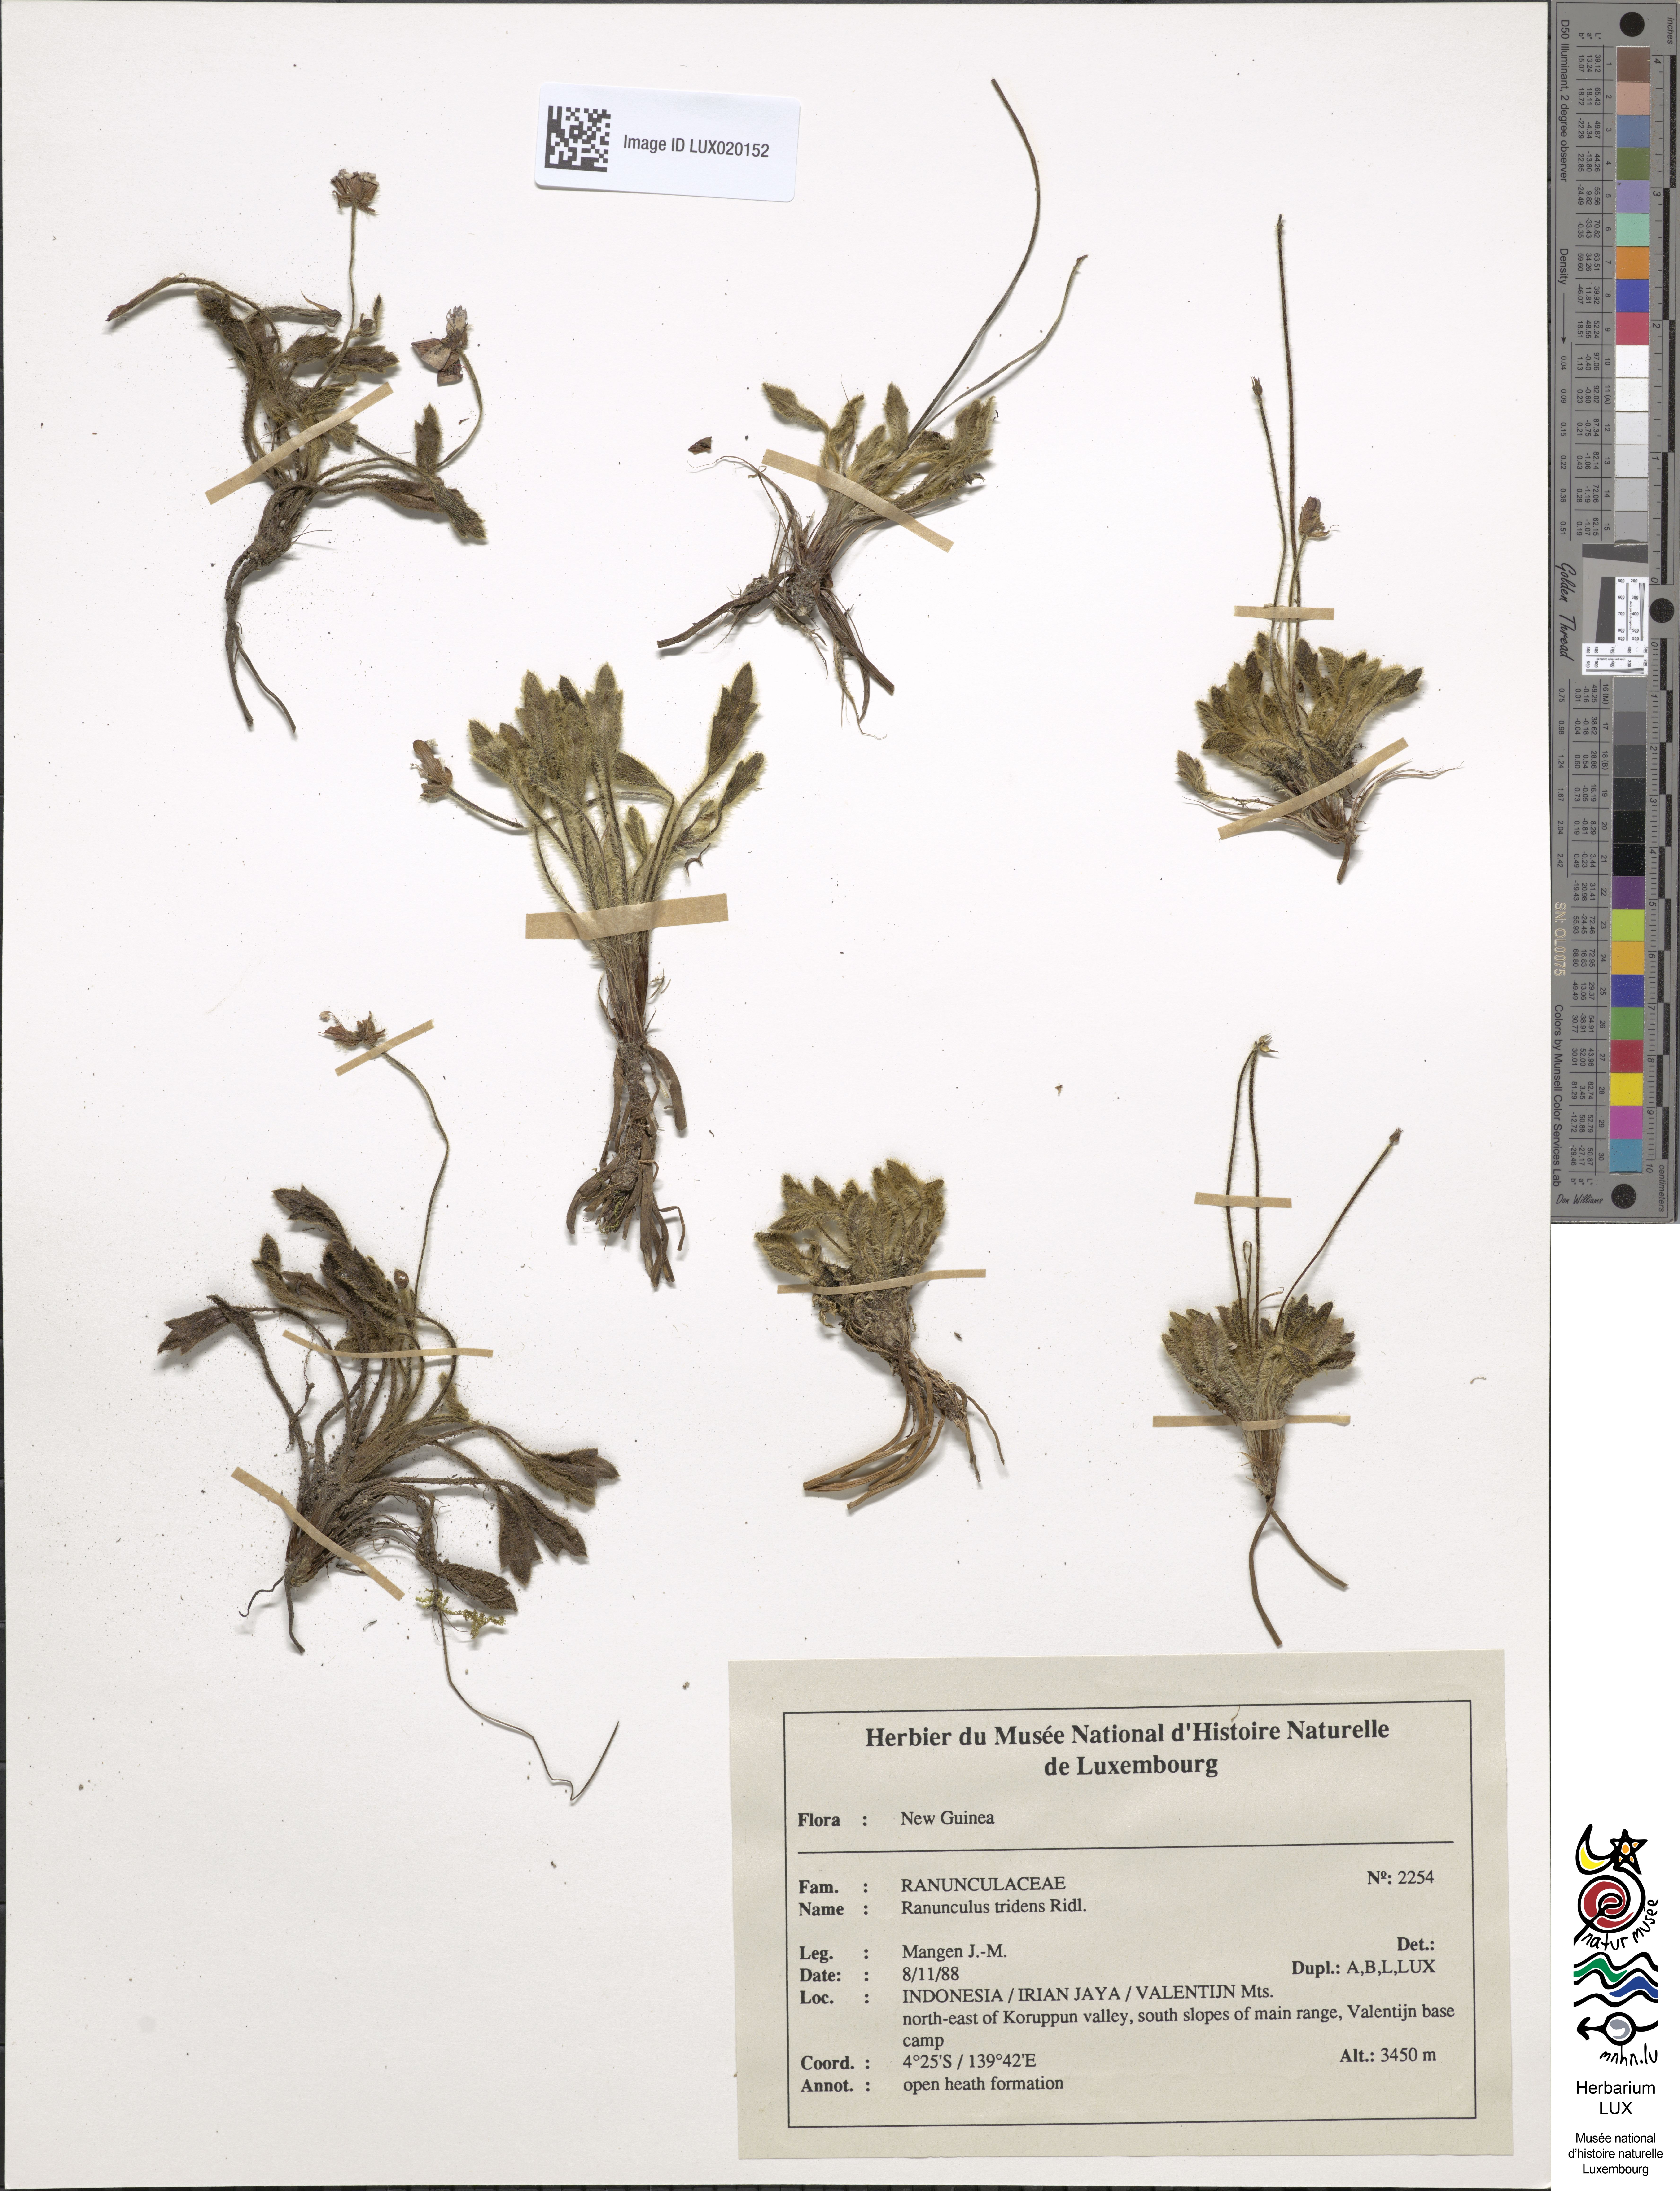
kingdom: Plantae
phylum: Tracheophyta
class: Magnoliopsida
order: Ranunculales
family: Ranunculaceae
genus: Ranunculus
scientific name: Ranunculus tridens
